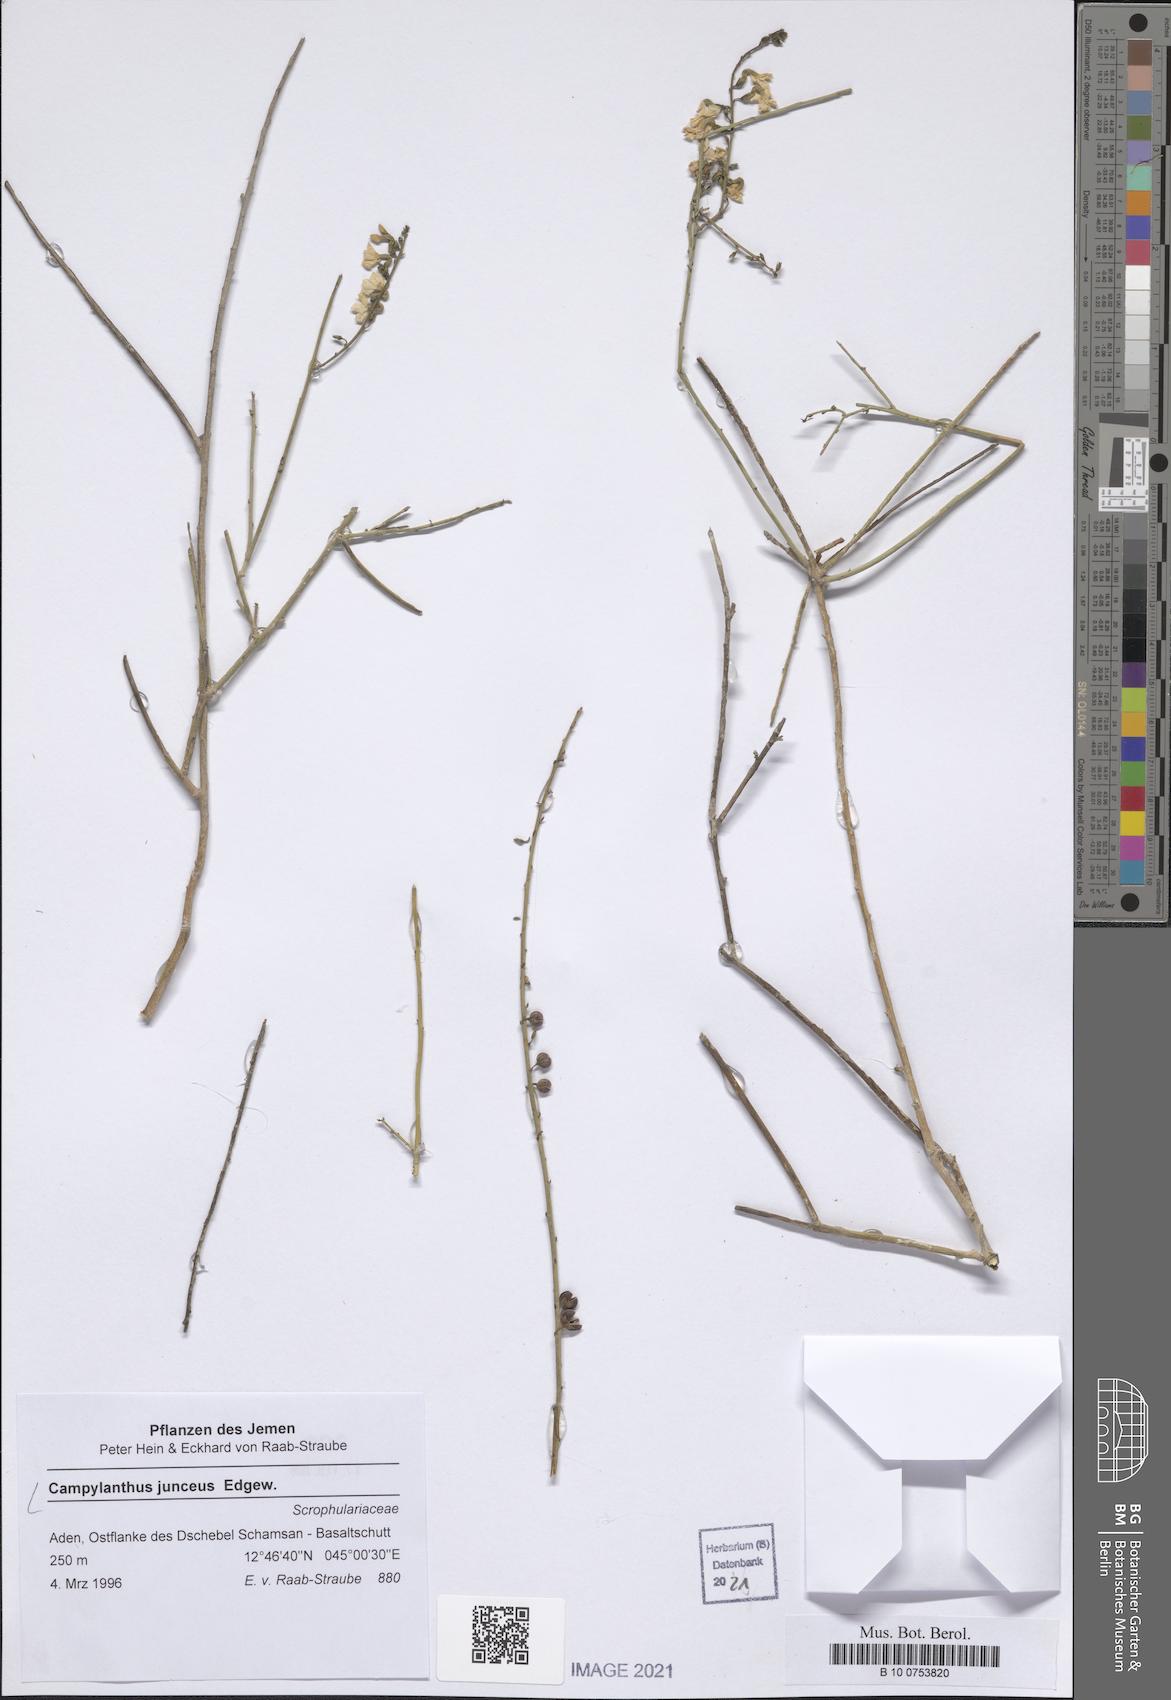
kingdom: Plantae
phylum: Tracheophyta
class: Magnoliopsida
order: Lamiales
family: Plantaginaceae
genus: Campylanthus
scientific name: Campylanthus junceus
